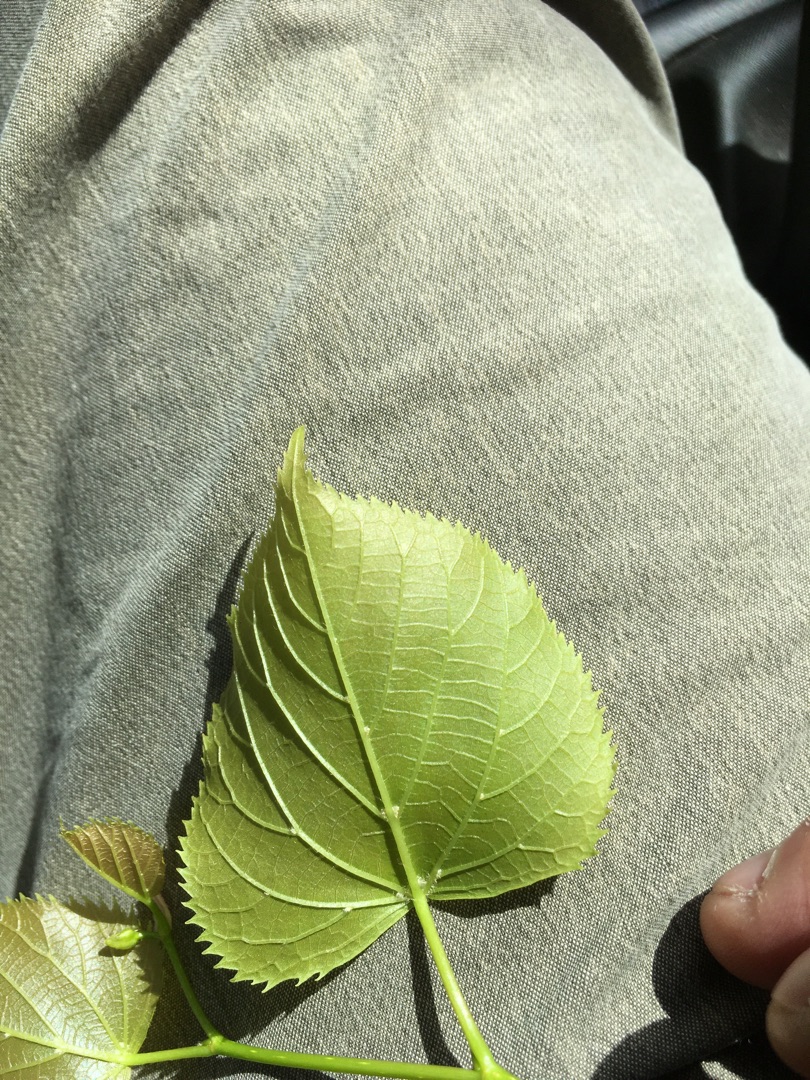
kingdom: Plantae
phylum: Tracheophyta
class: Magnoliopsida
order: Malvales
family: Malvaceae
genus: Tilia
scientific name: Tilia europaea
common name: Park-lind
